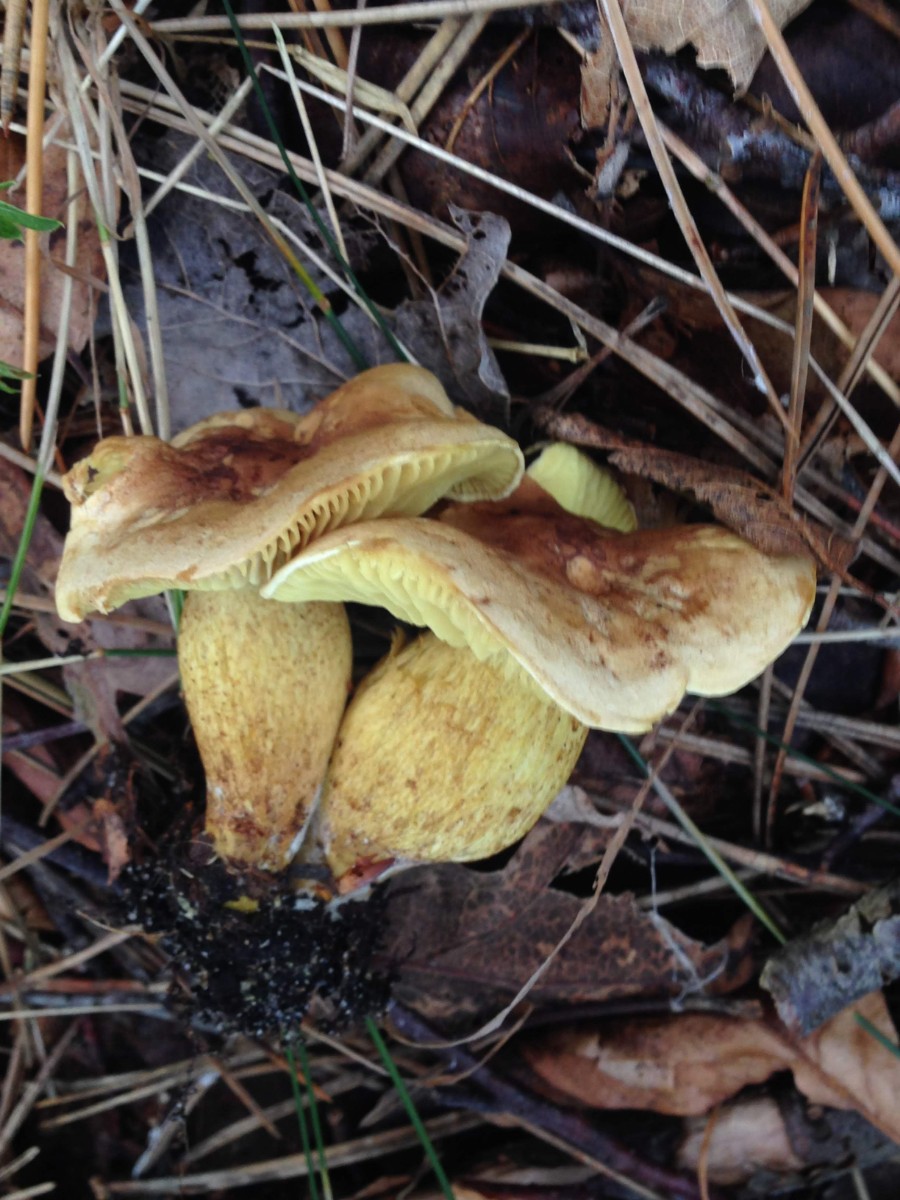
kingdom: Fungi
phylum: Basidiomycota
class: Agaricomycetes
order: Agaricales
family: Tricholomataceae
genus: Tricholoma
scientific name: Tricholoma sulphureum
